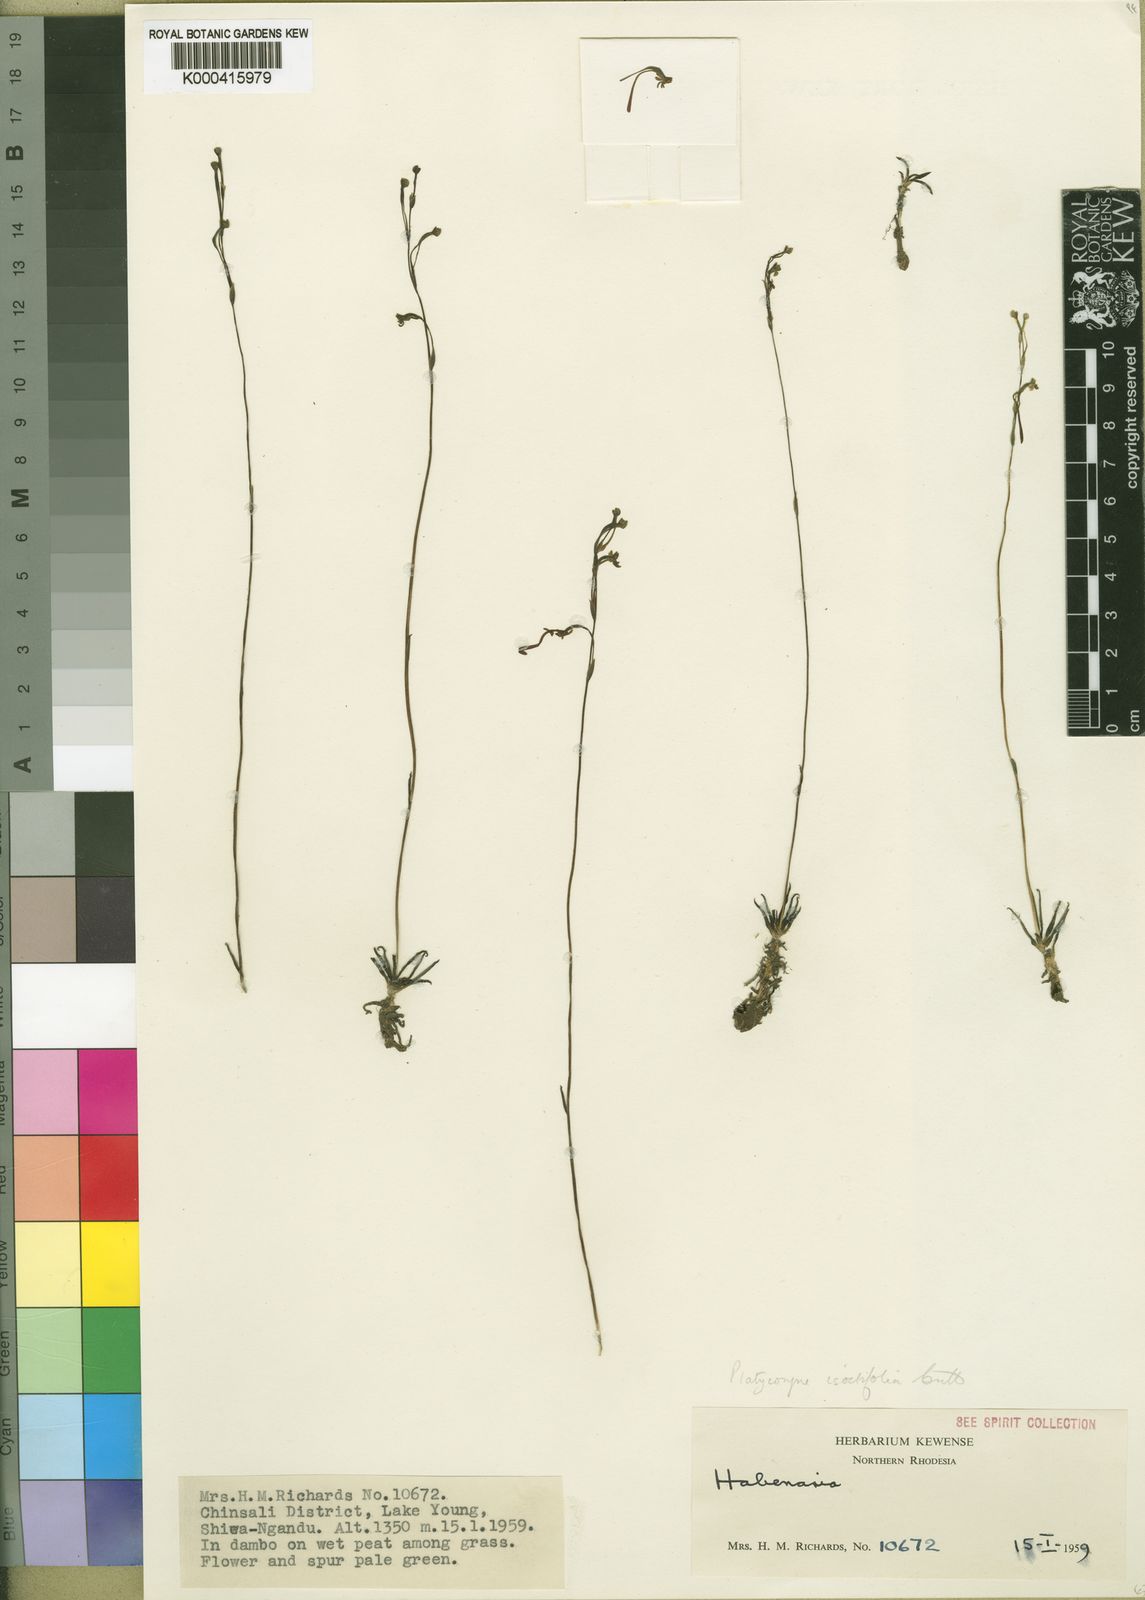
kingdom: Plantae
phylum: Tracheophyta
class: Liliopsida
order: Asparagales
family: Orchidaceae
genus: Habenaria
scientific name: Habenaria
